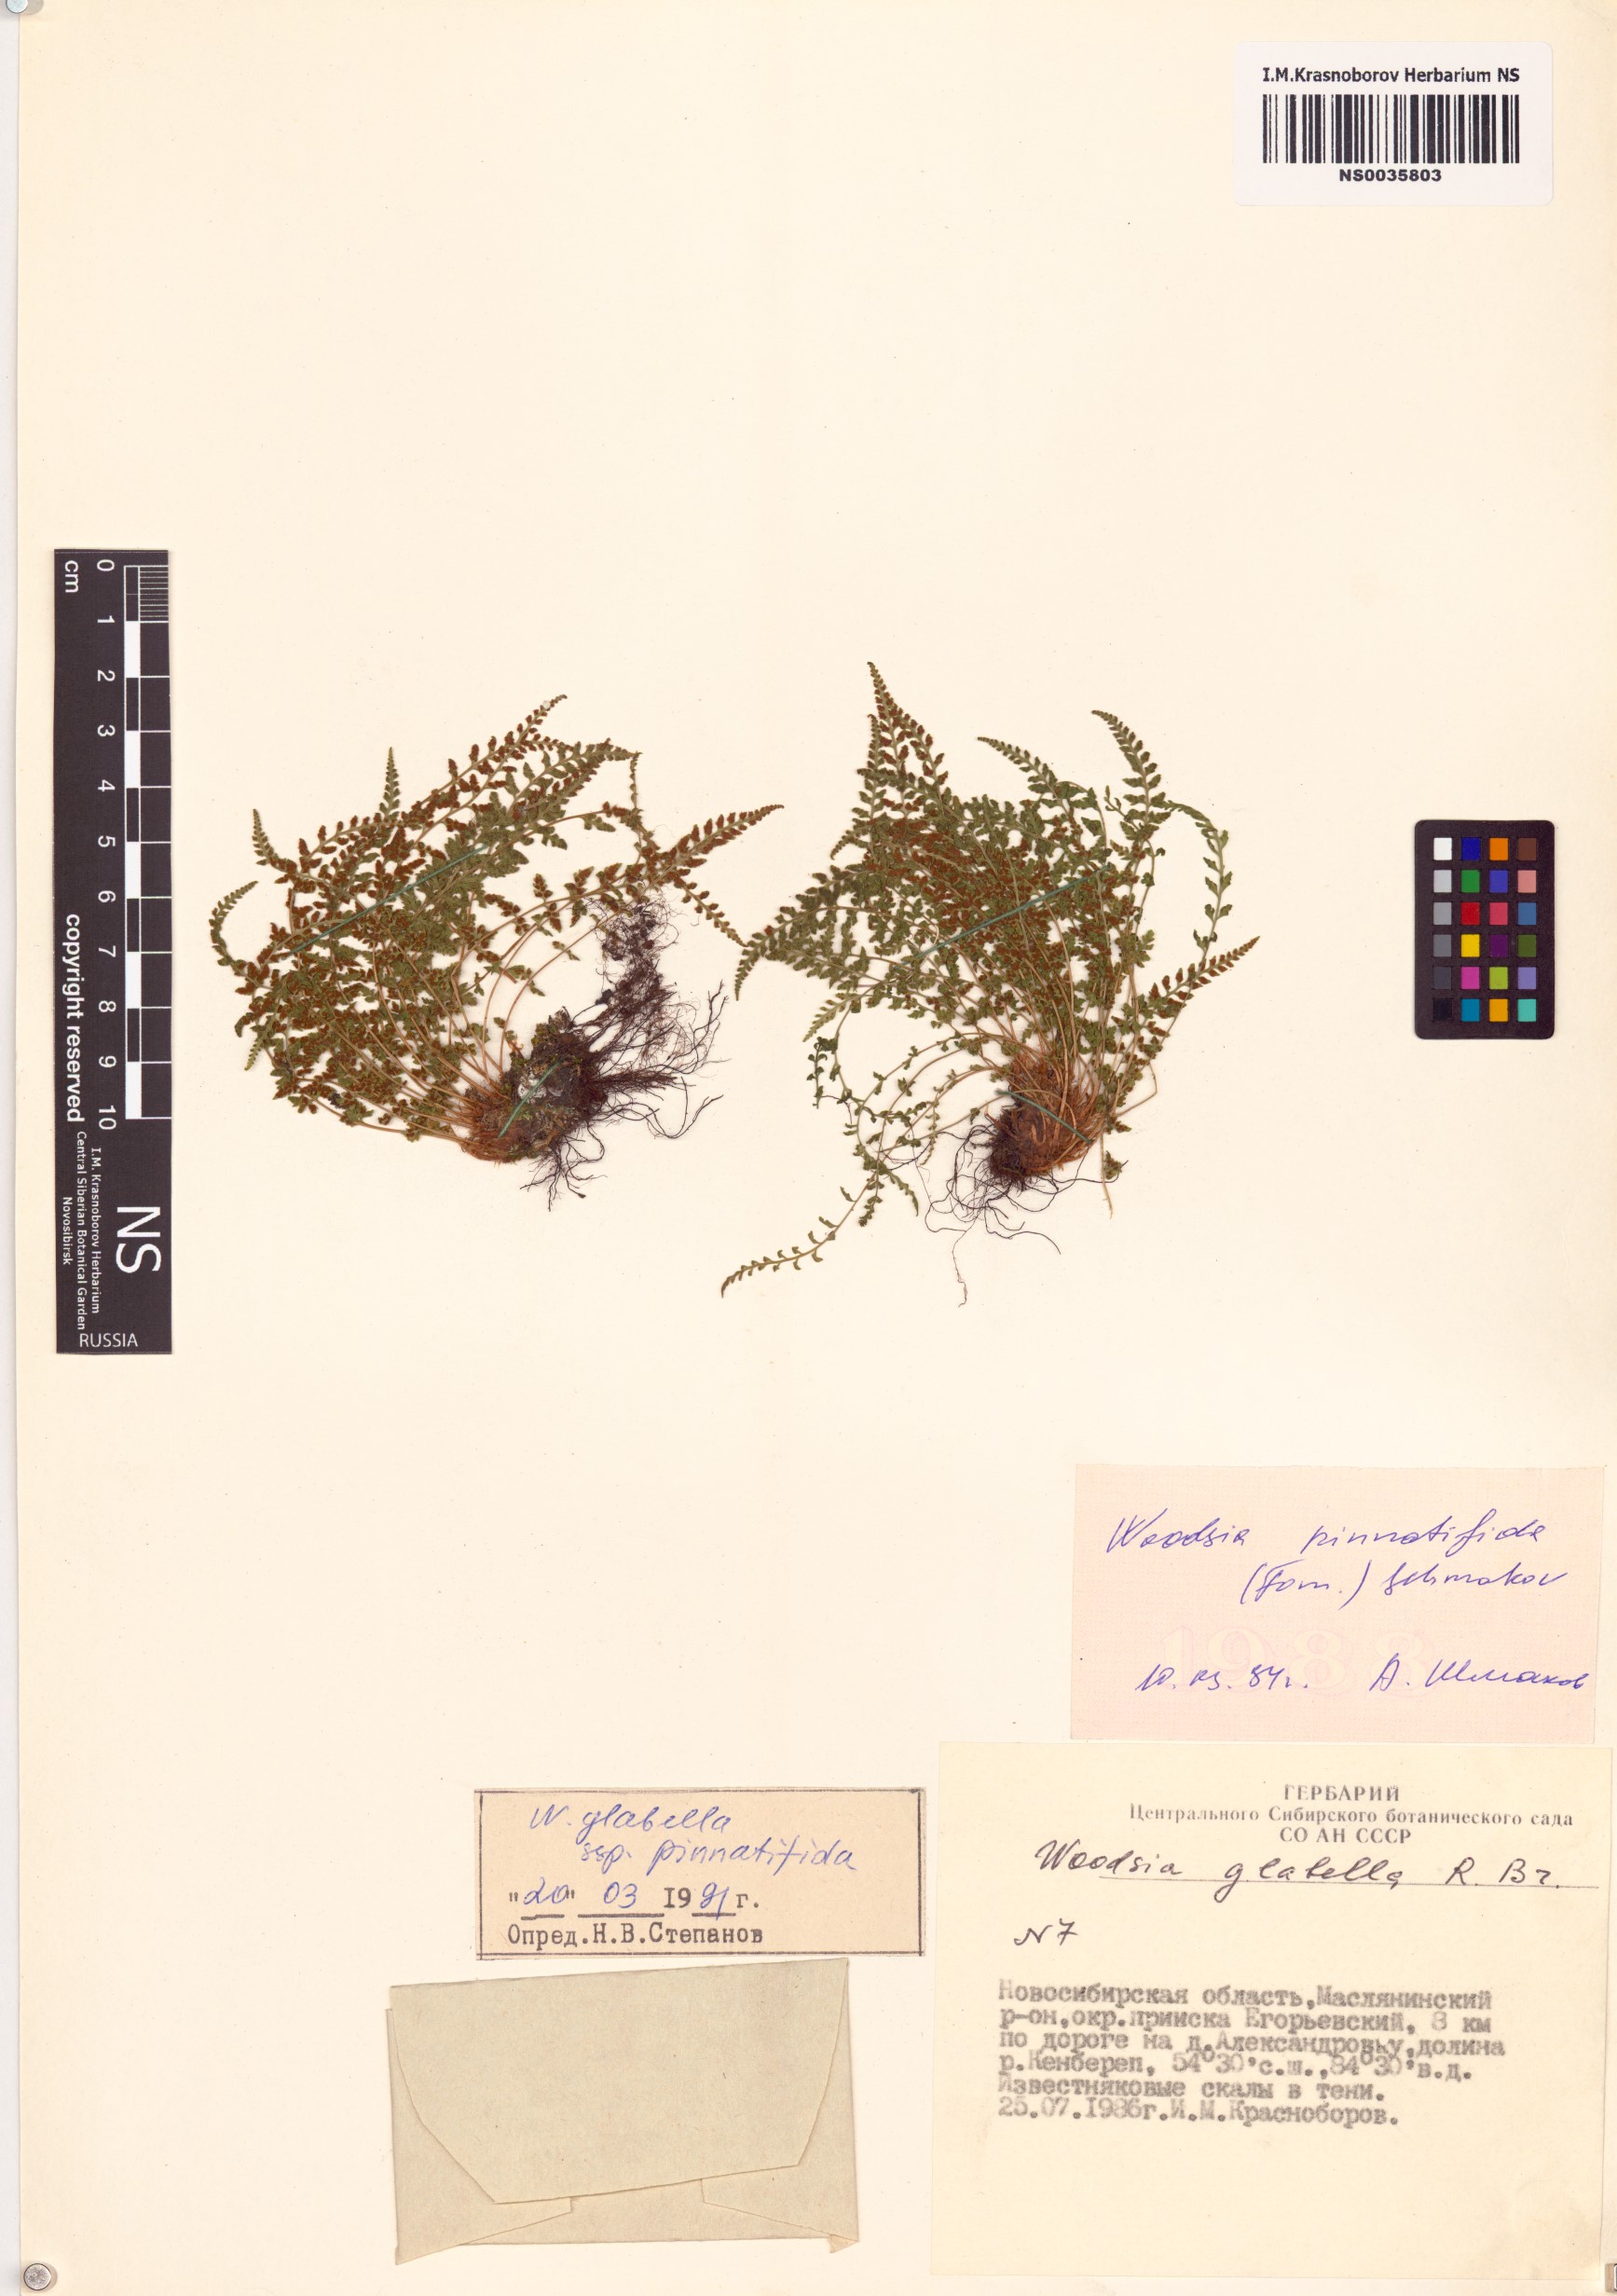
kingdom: Plantae
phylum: Tracheophyta
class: Polypodiopsida
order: Polypodiales
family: Woodsiaceae
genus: Woodsia
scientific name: Woodsia
